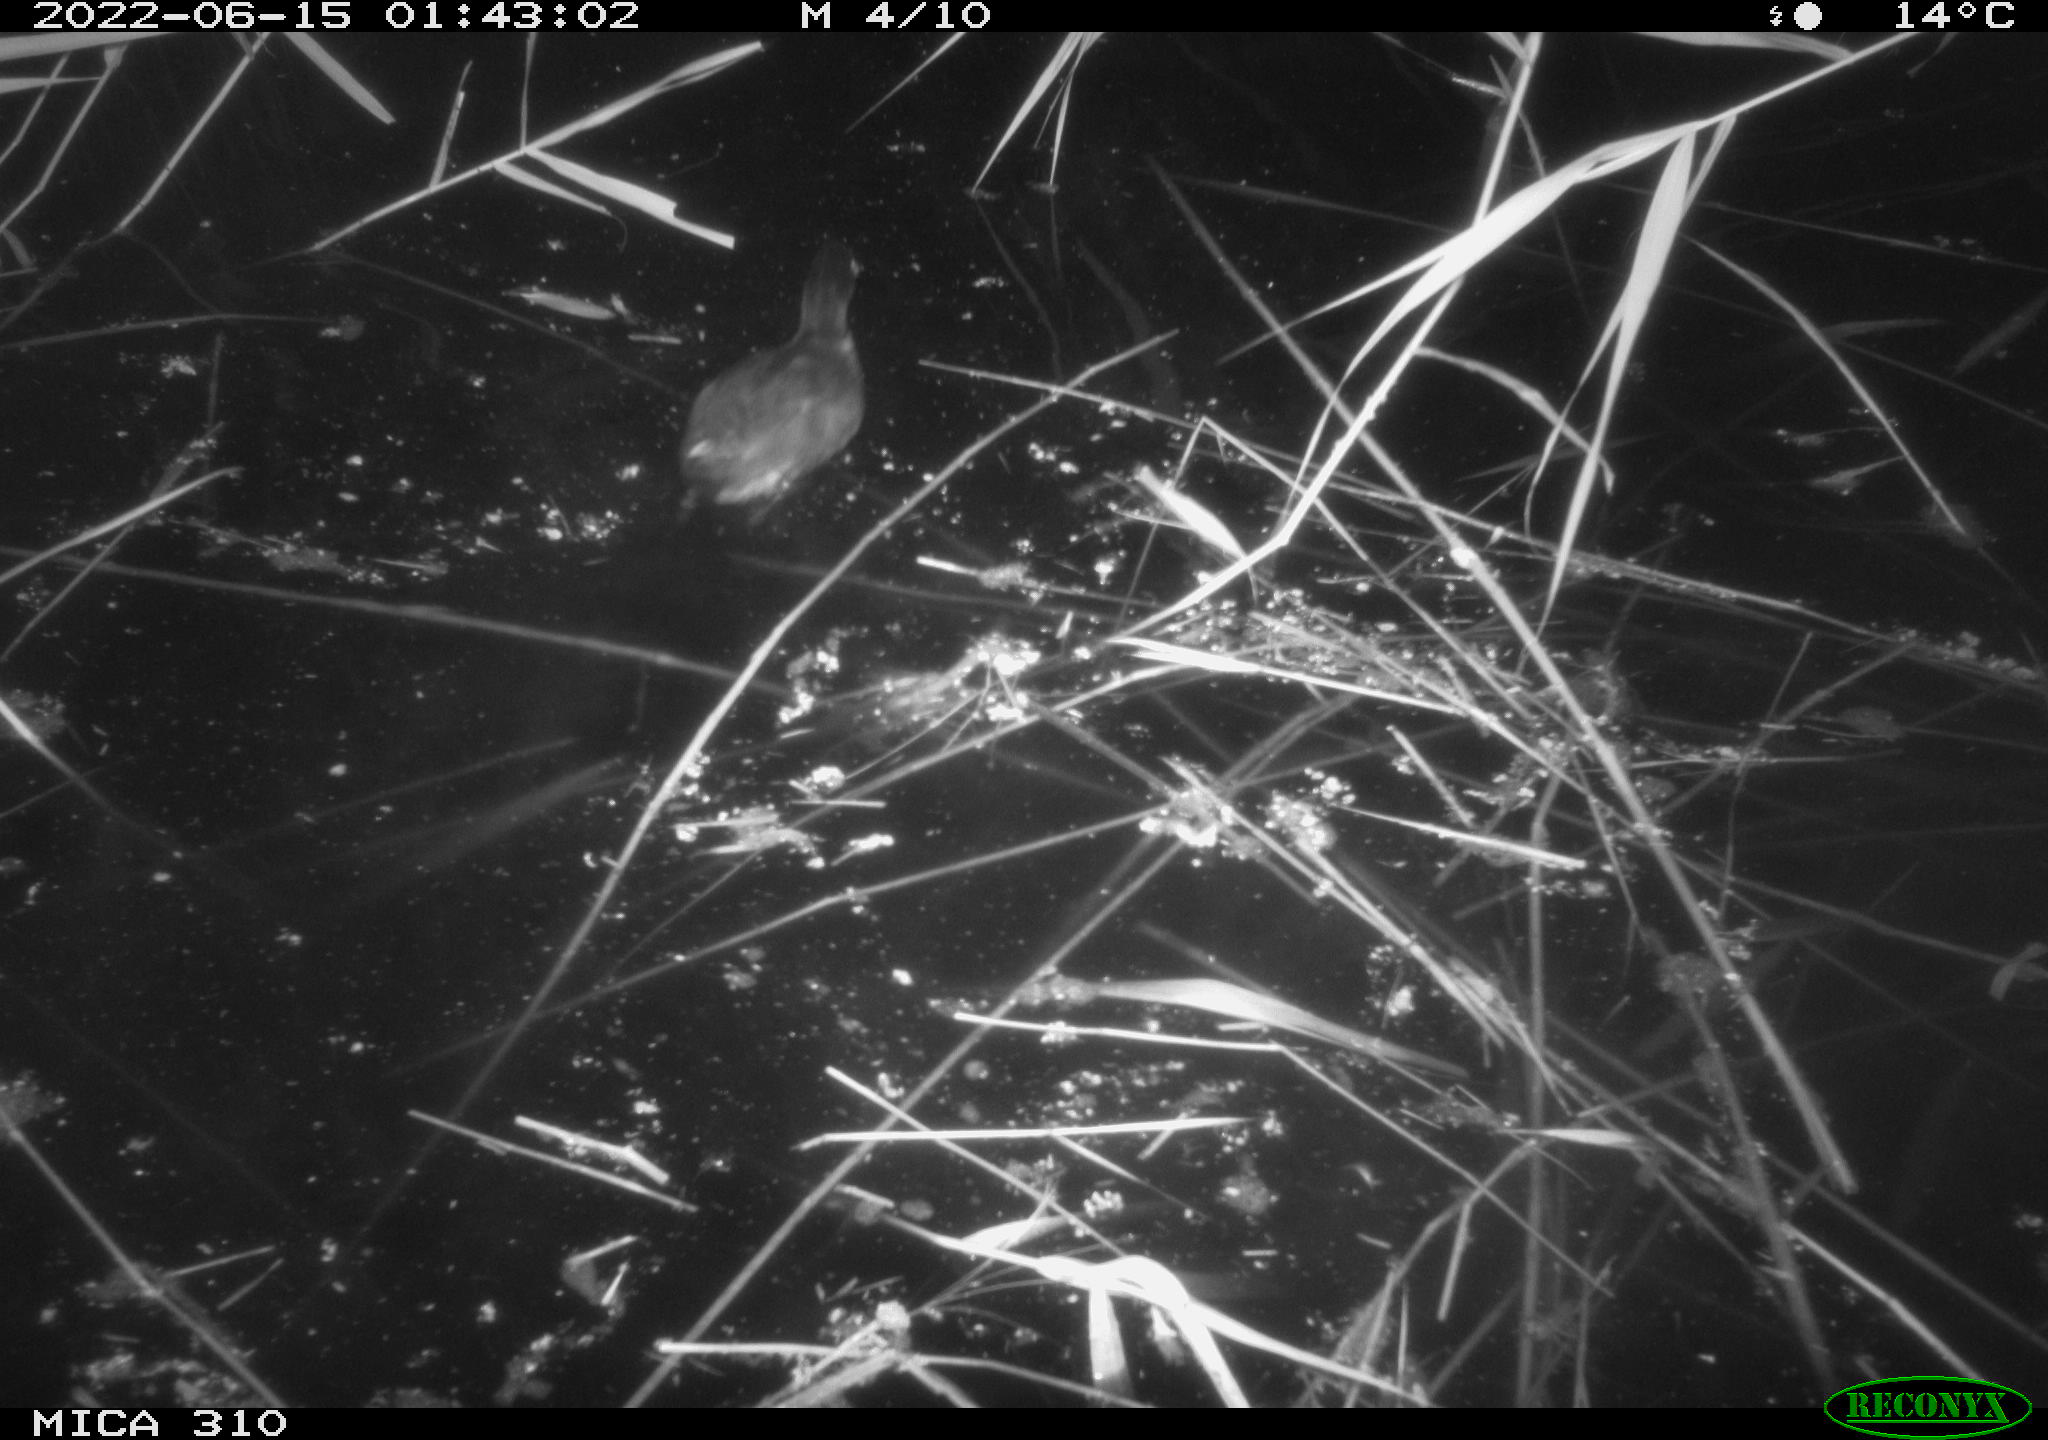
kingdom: Animalia
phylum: Chordata
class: Aves
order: Gruiformes
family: Rallidae
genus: Gallinula
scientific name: Gallinula chloropus
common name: Common moorhen
